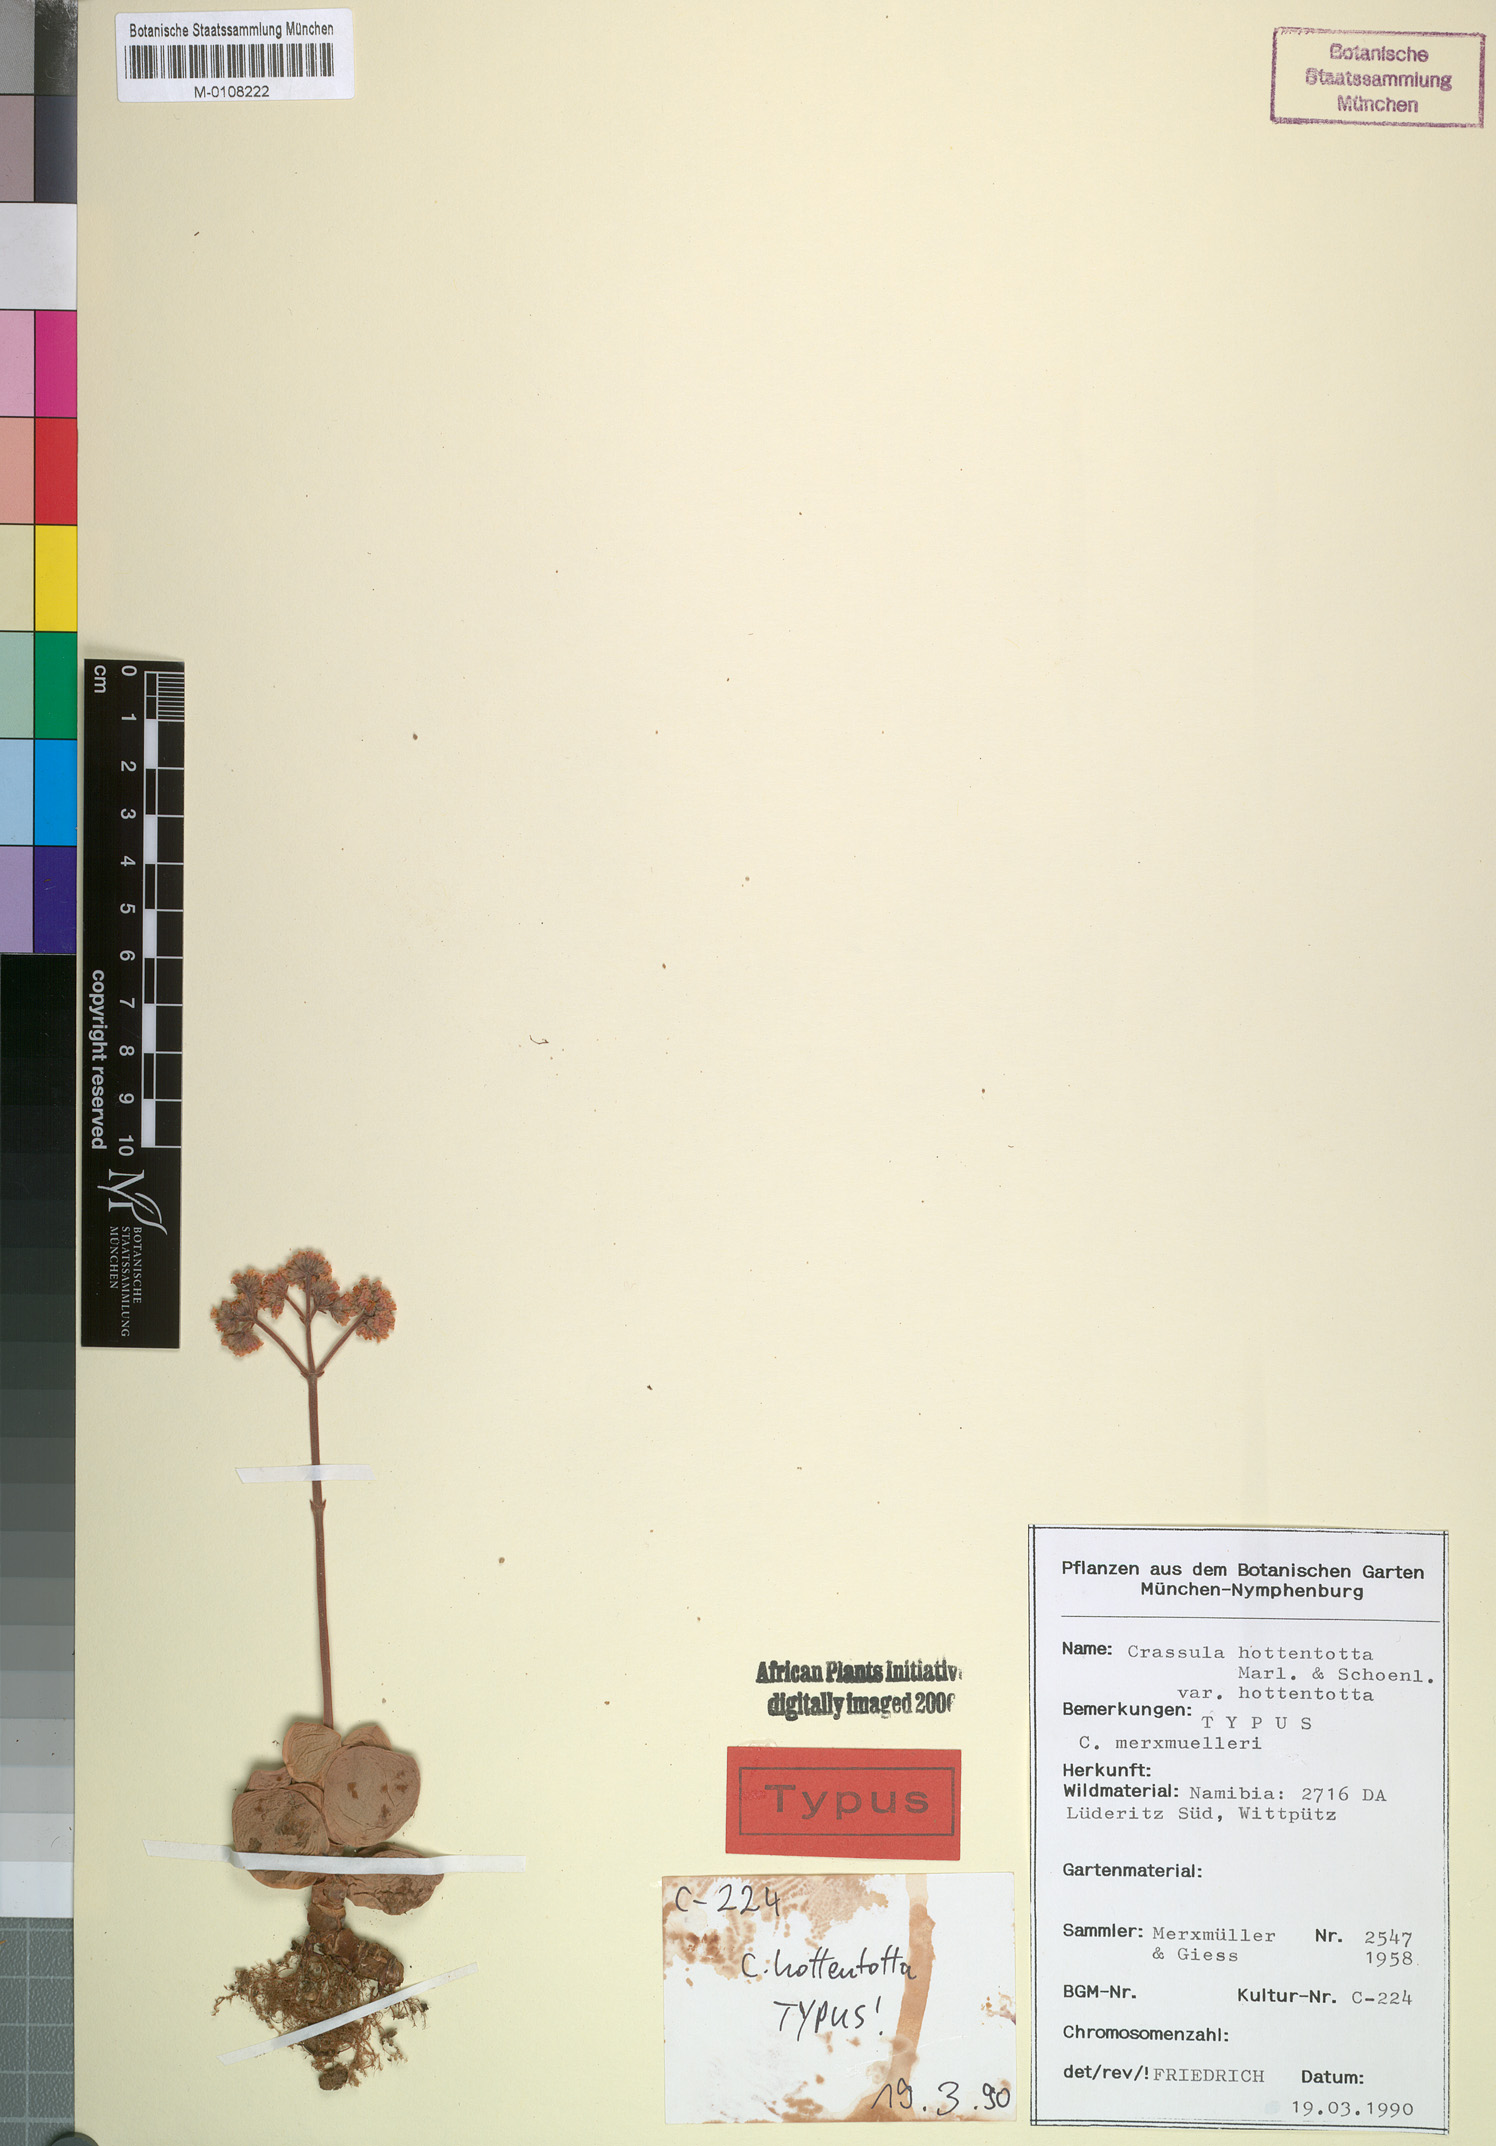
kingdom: Plantae
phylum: Tracheophyta
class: Magnoliopsida
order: Saxifragales
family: Crassulaceae
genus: Crassula
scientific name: Crassula sericea
